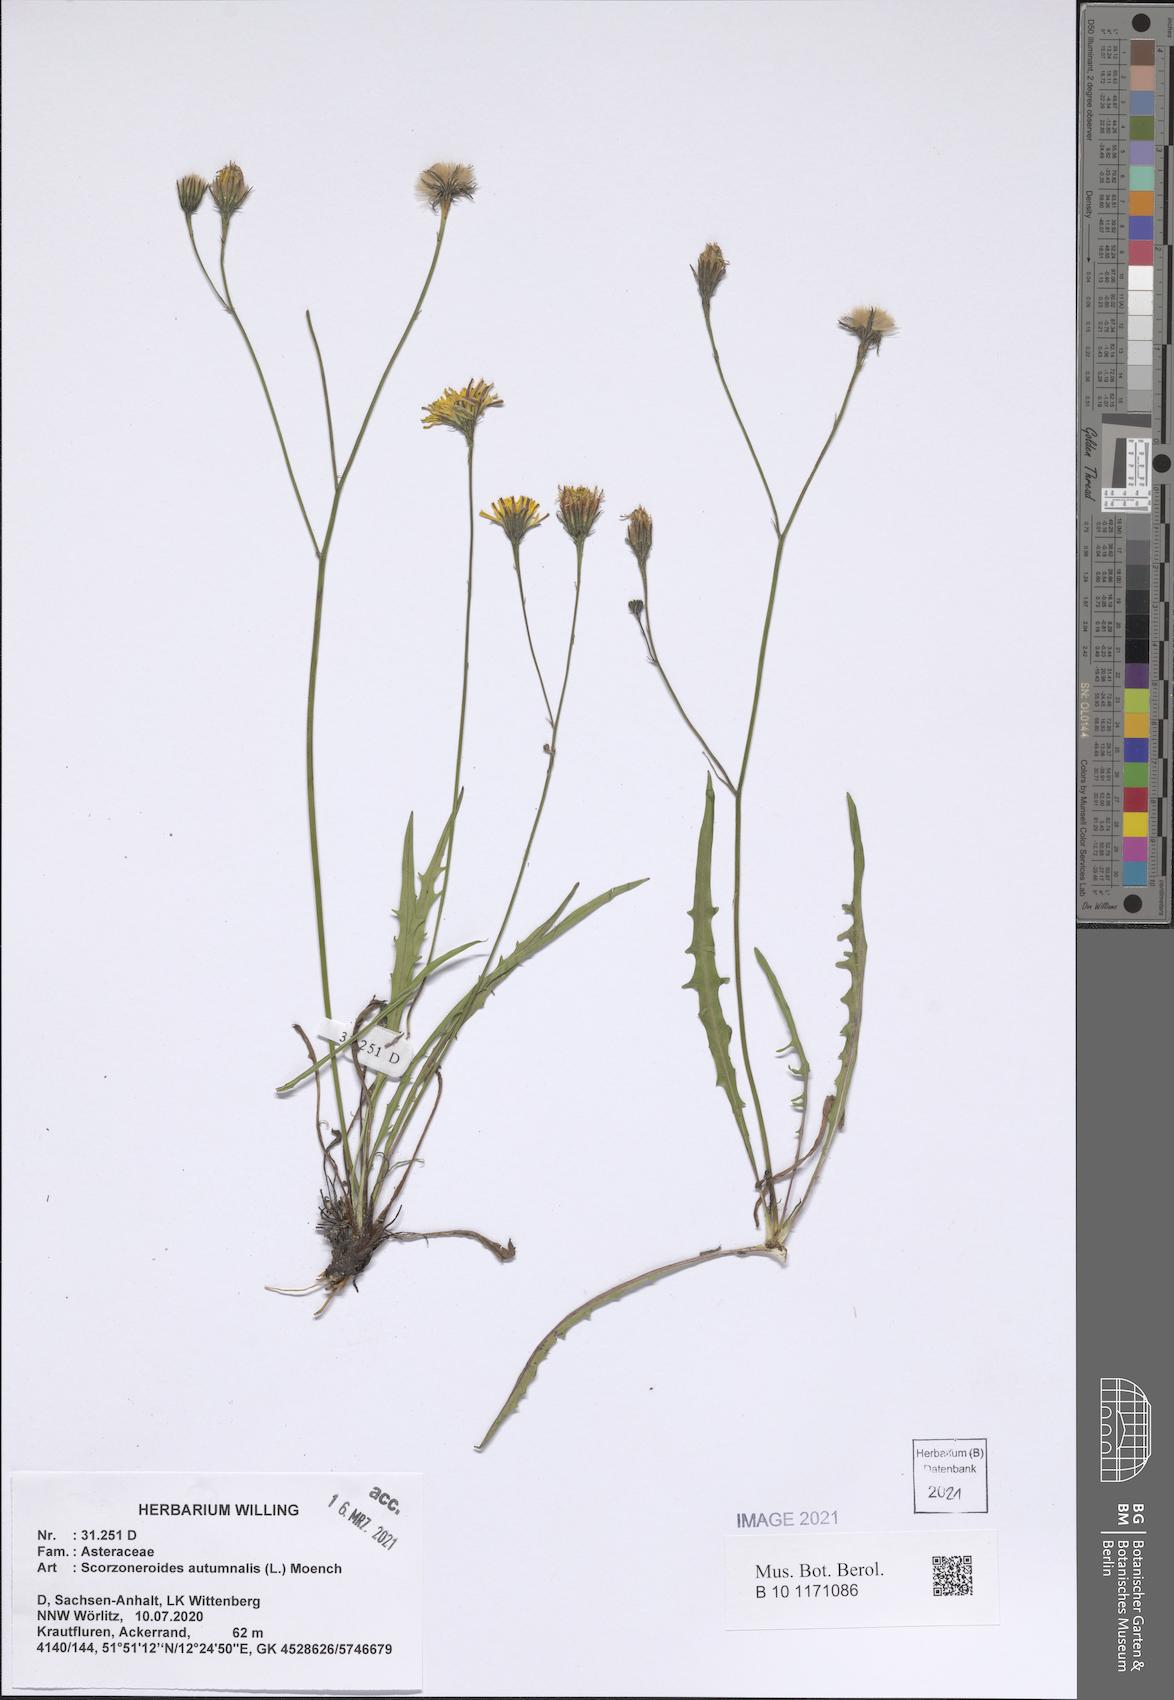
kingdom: Plantae
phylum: Tracheophyta
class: Magnoliopsida
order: Asterales
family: Asteraceae
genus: Scorzoneroides
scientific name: Scorzoneroides autumnalis
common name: Autumn hawkbit
